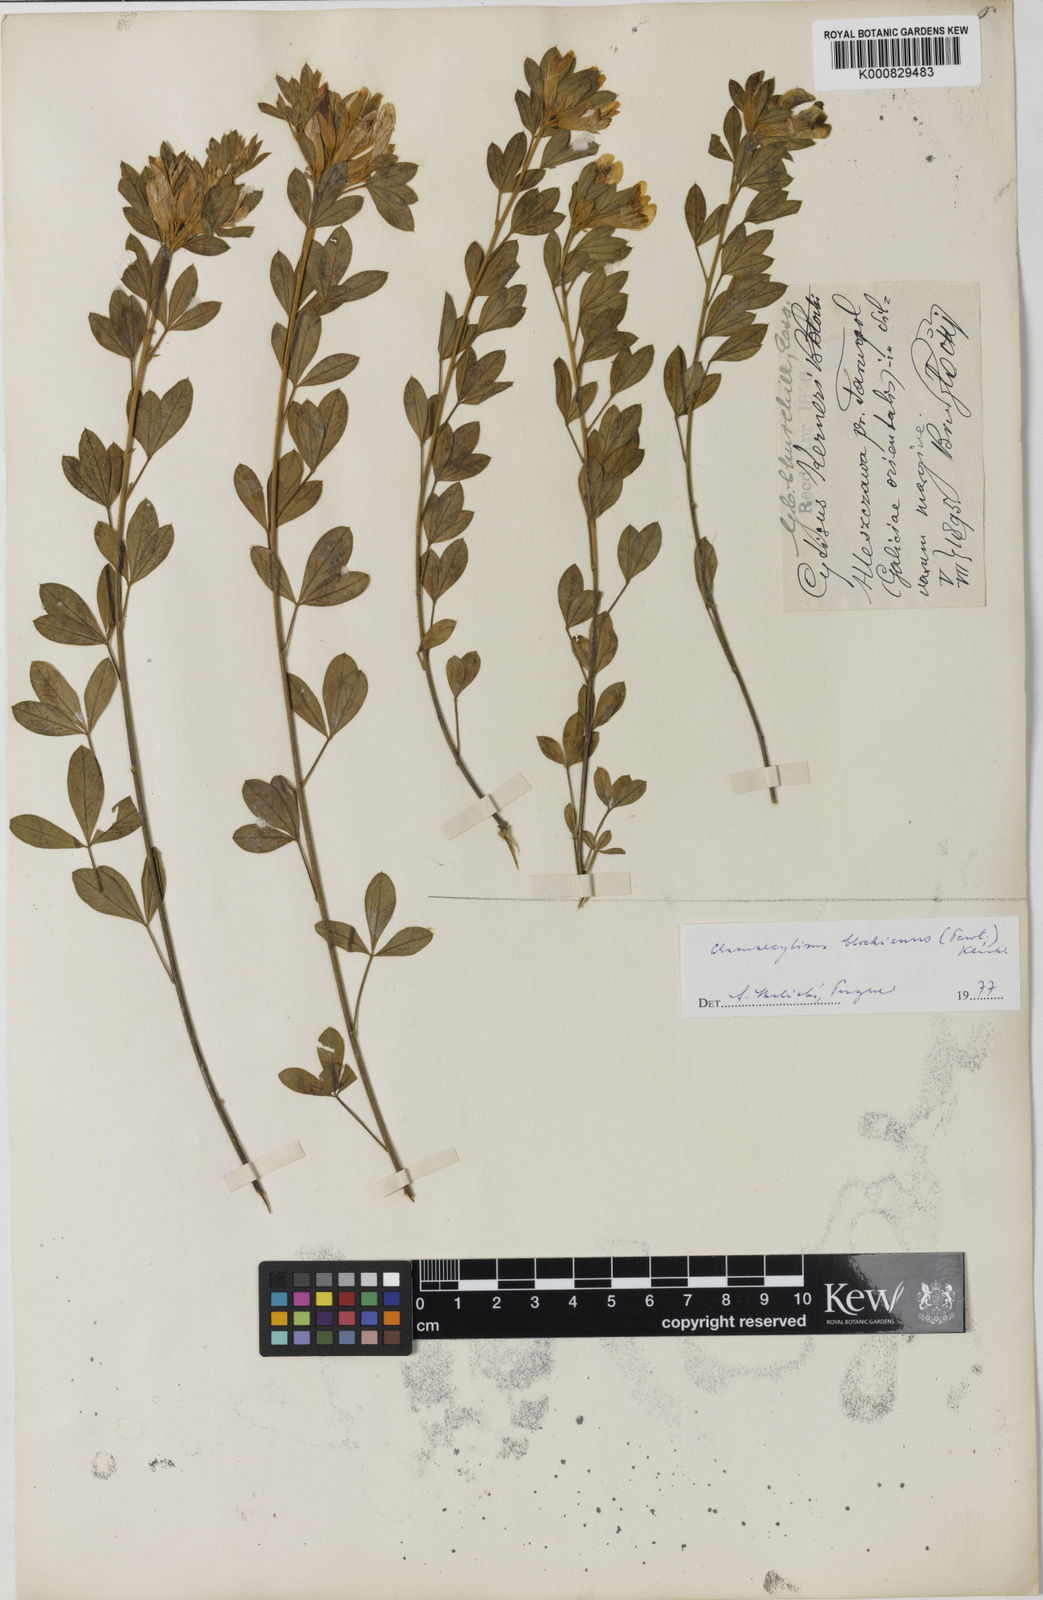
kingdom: Plantae
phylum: Tracheophyta
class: Magnoliopsida
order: Fabales
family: Fabaceae
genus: Cytisus
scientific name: Cytisus kerneri
